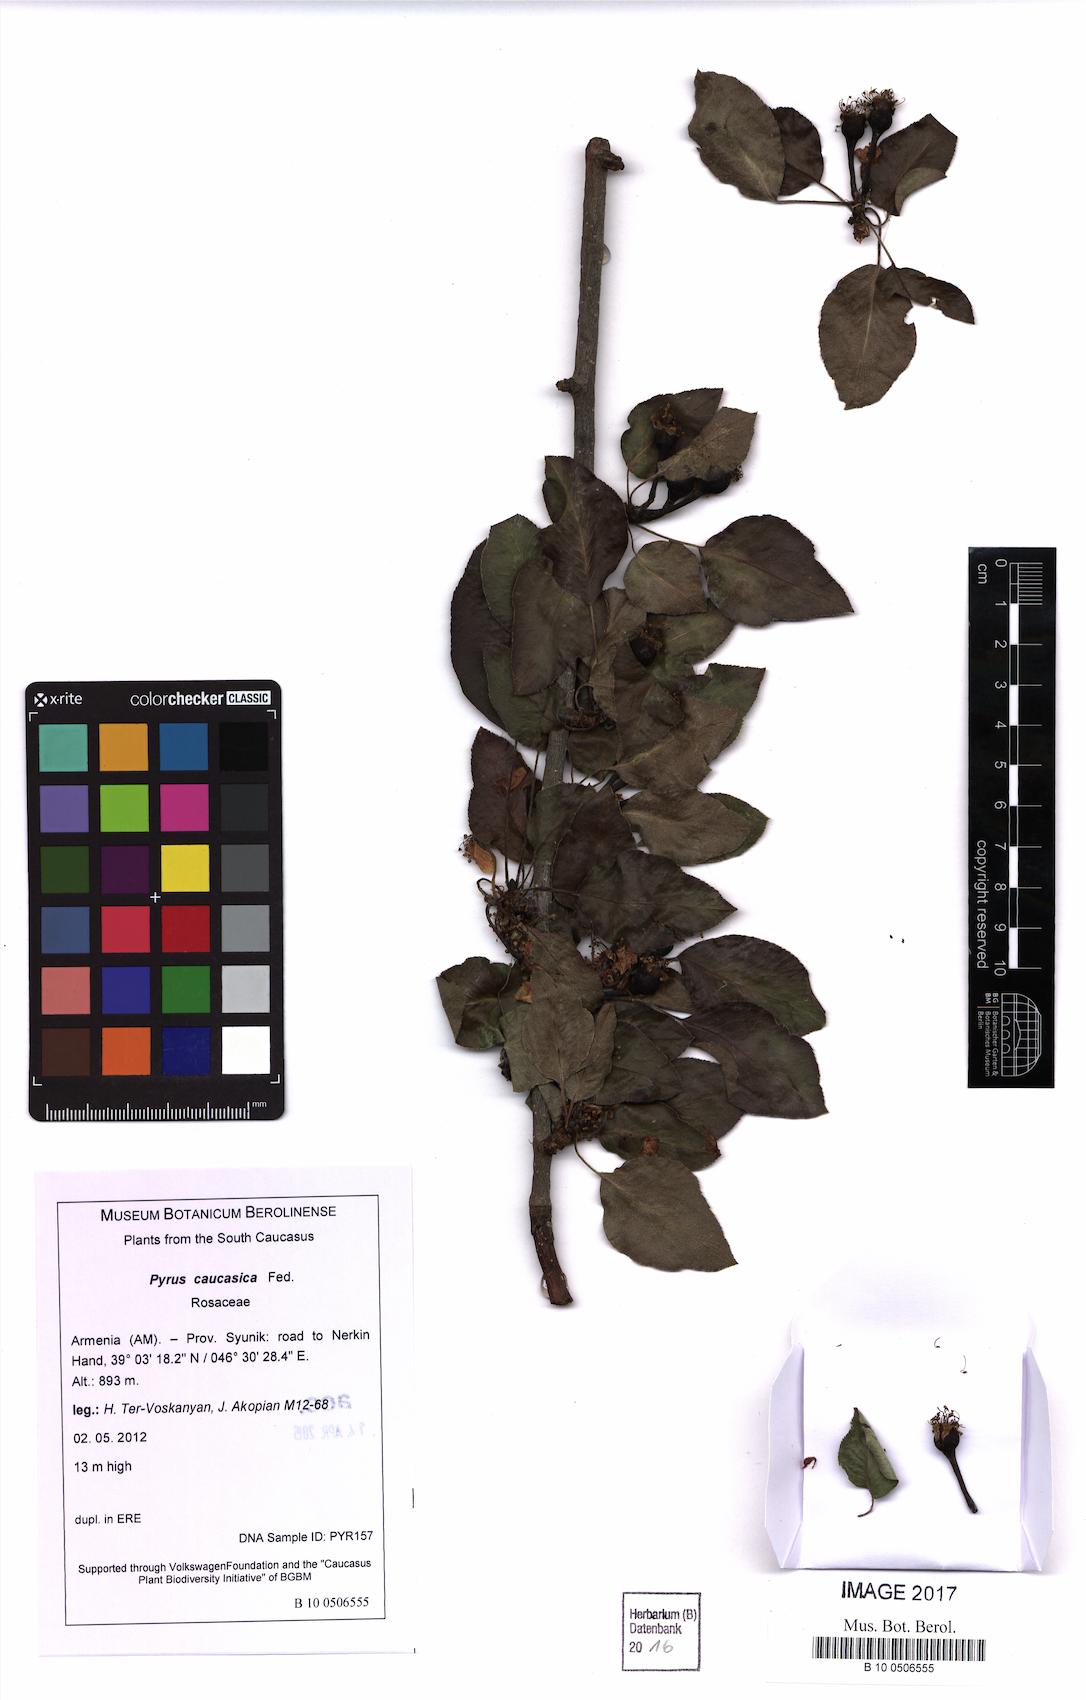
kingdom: Plantae
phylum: Tracheophyta
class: Magnoliopsida
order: Rosales
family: Rosaceae
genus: Pyrus
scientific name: Pyrus communis
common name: Pear
